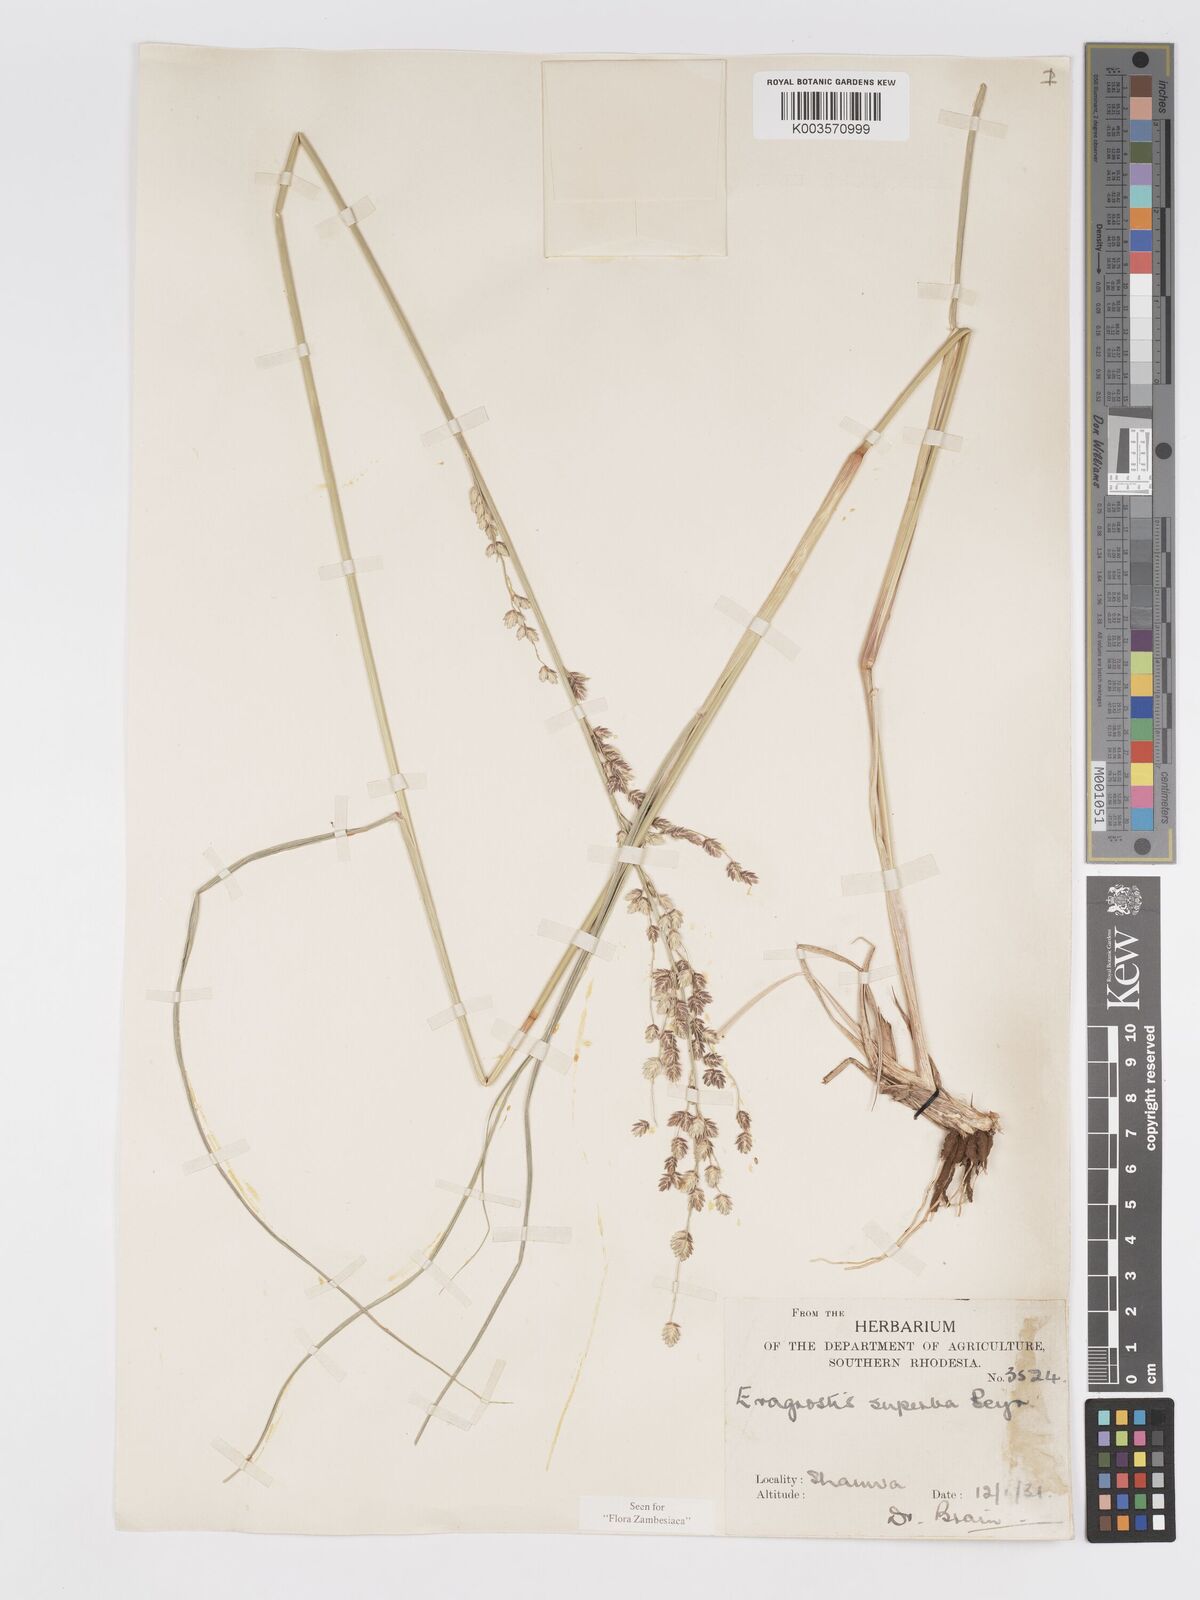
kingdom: Plantae
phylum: Tracheophyta
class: Liliopsida
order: Poales
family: Poaceae
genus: Eragrostis
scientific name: Eragrostis superba
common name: Wilman lovegrass
